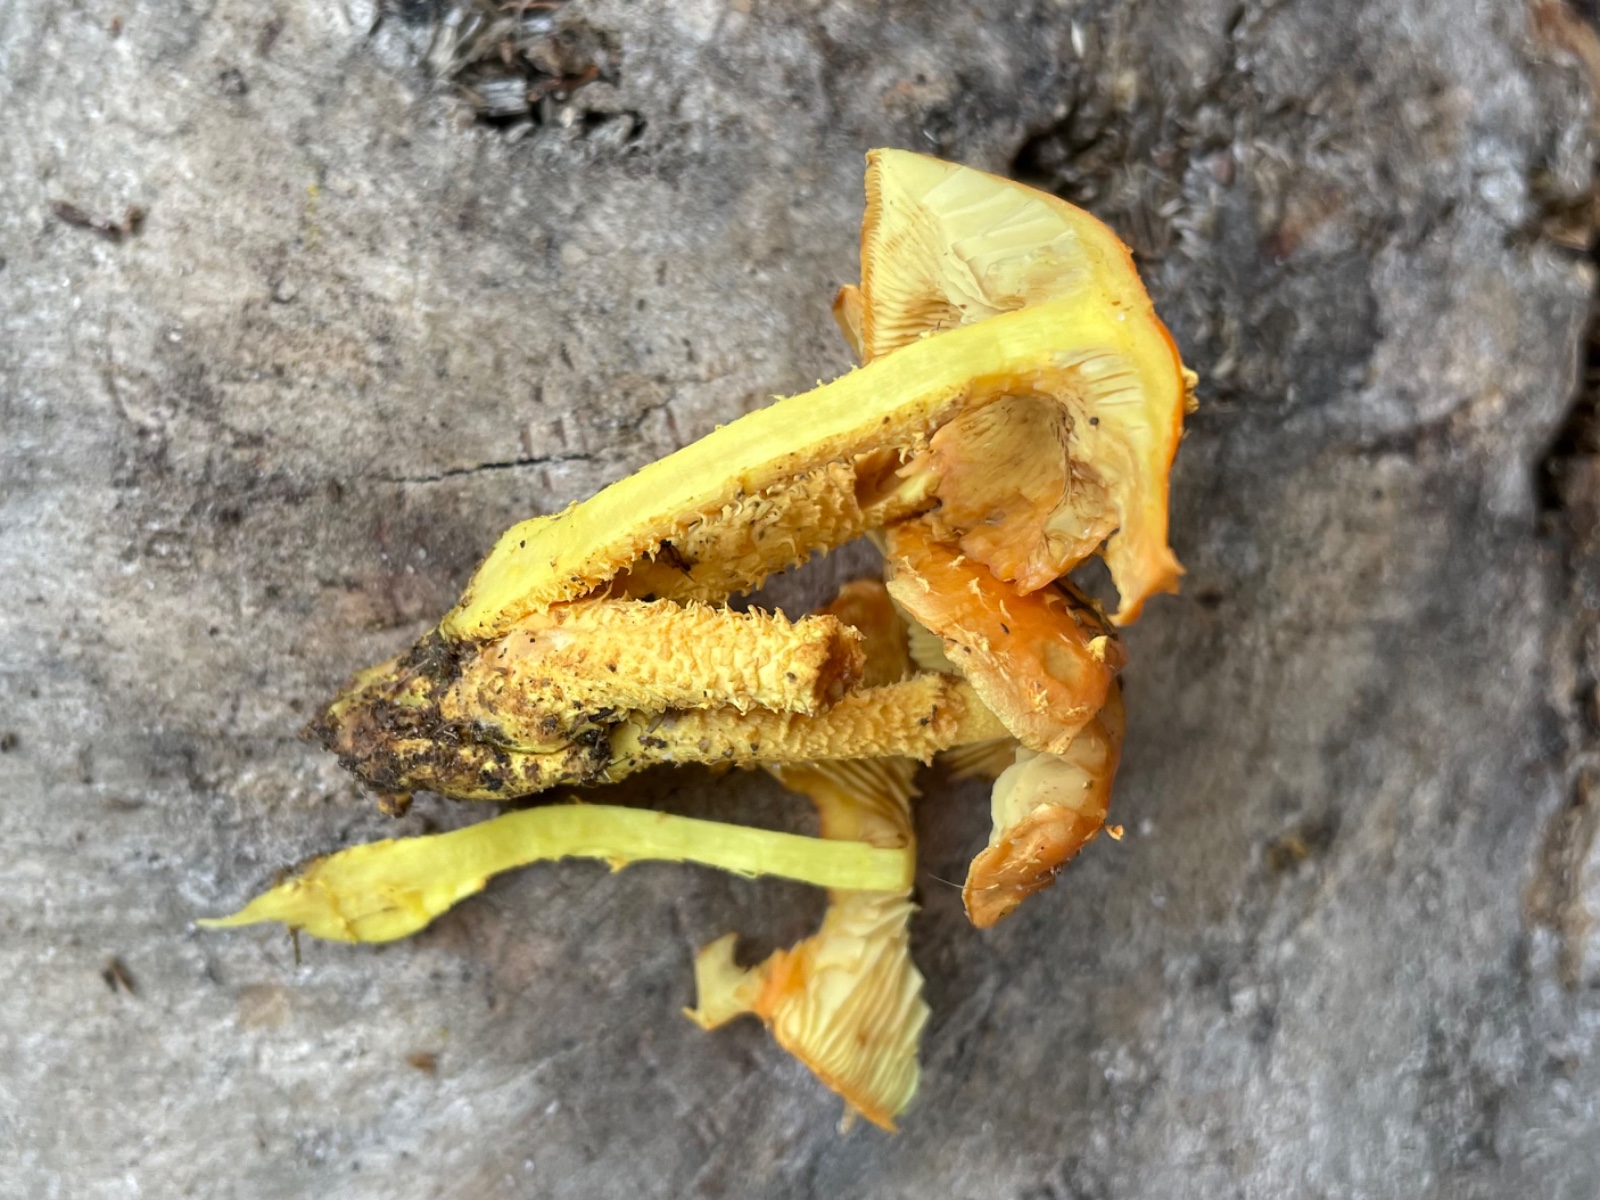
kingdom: Fungi
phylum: Basidiomycota
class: Agaricomycetes
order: Agaricales
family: Strophariaceae
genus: Pholiota
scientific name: Pholiota flammans
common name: flamme-skælhat
